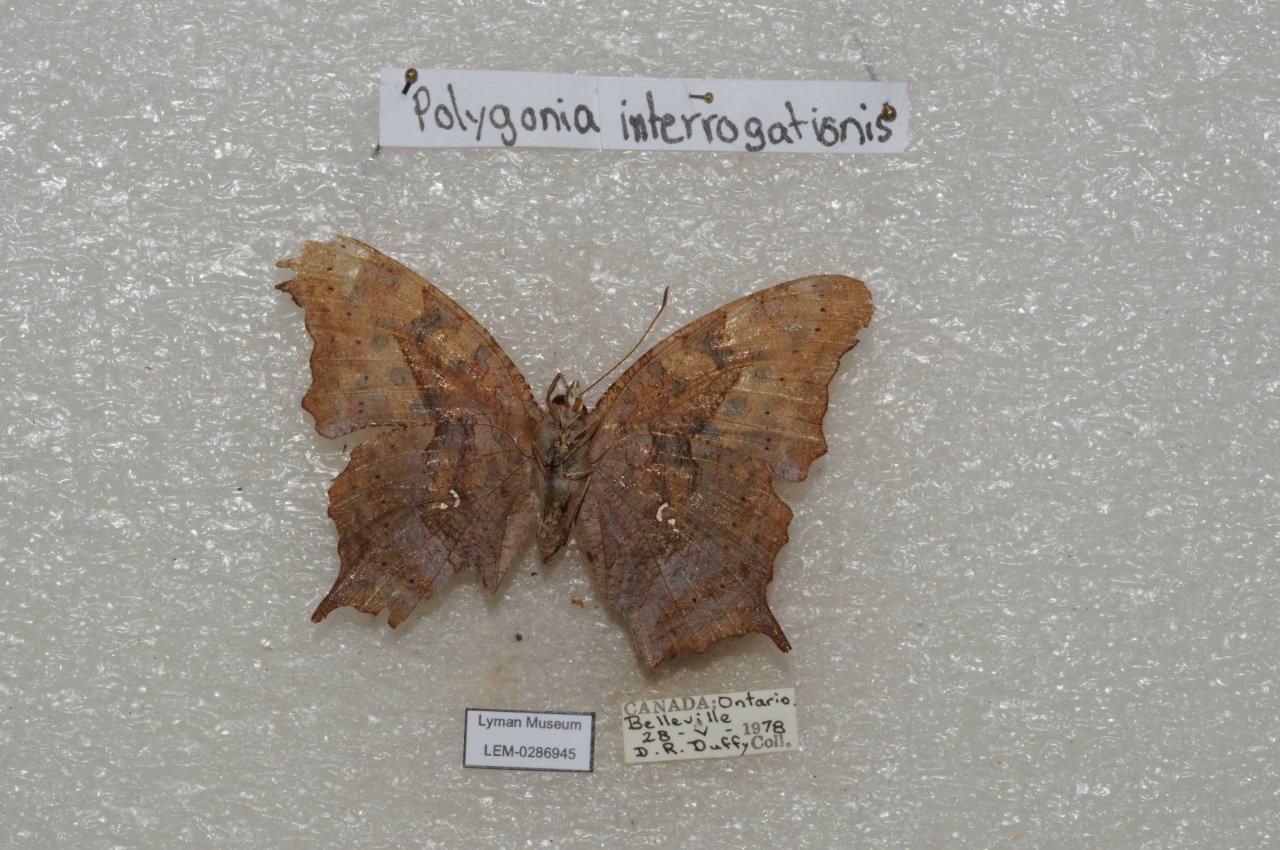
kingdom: Animalia
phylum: Arthropoda
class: Insecta
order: Lepidoptera
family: Nymphalidae
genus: Polygonia
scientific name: Polygonia interrogationis
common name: Question Mark
